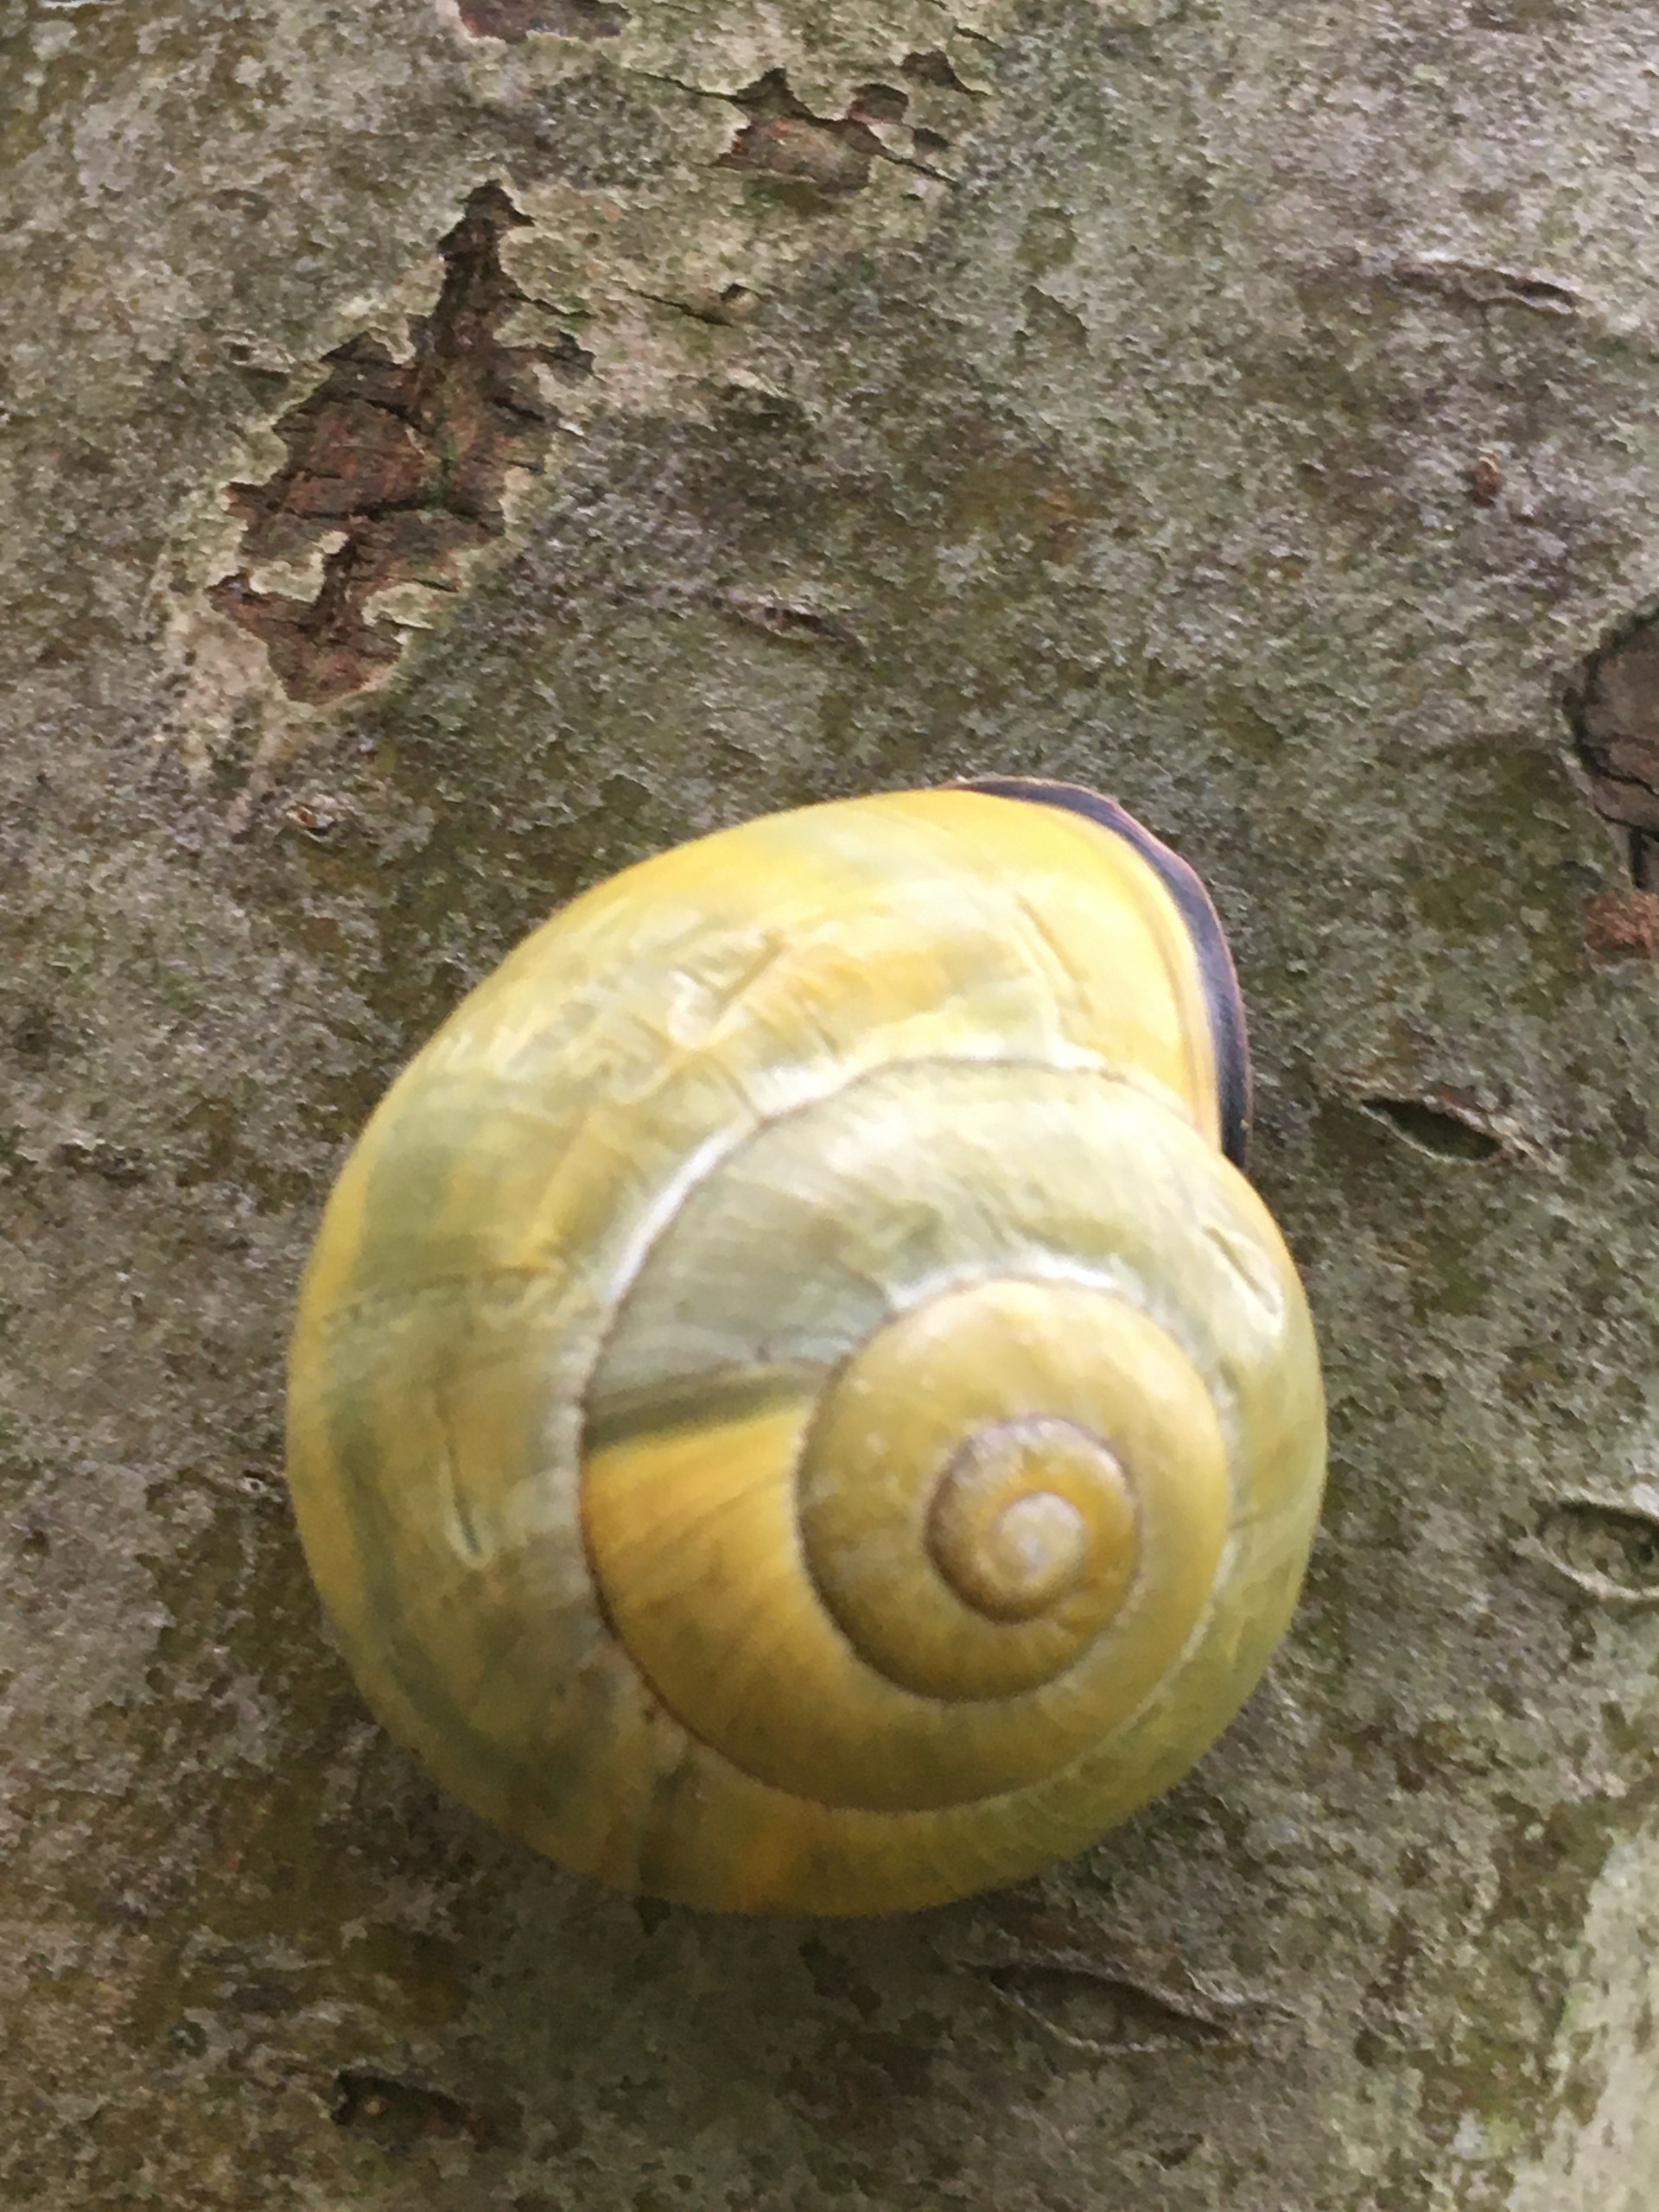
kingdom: Animalia
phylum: Mollusca
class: Gastropoda
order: Stylommatophora
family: Helicidae
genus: Cepaea
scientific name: Cepaea nemoralis
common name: Lundsnegl
